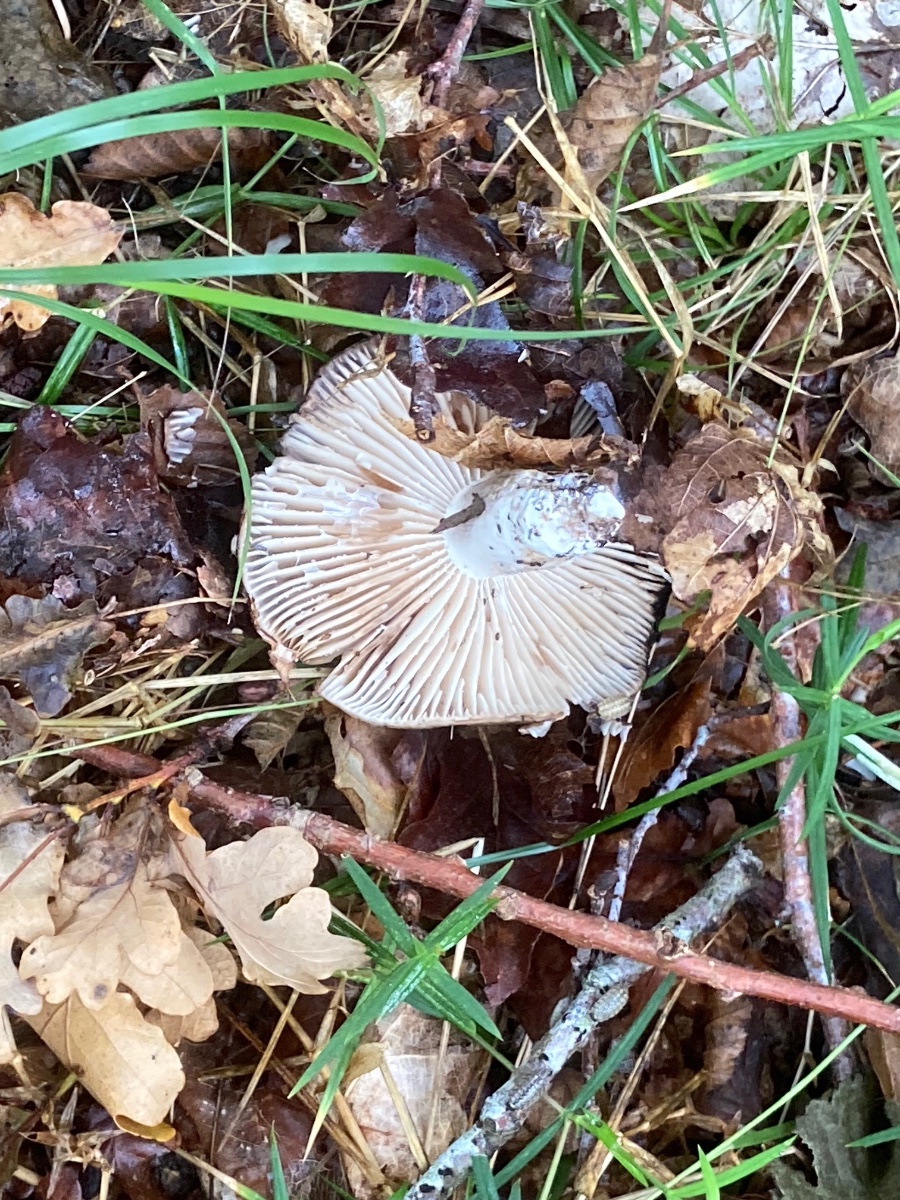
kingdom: Fungi
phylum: Basidiomycota
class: Agaricomycetes
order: Russulales
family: Russulaceae
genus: Russula
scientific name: Russula adusta
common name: sværtende skørhat
